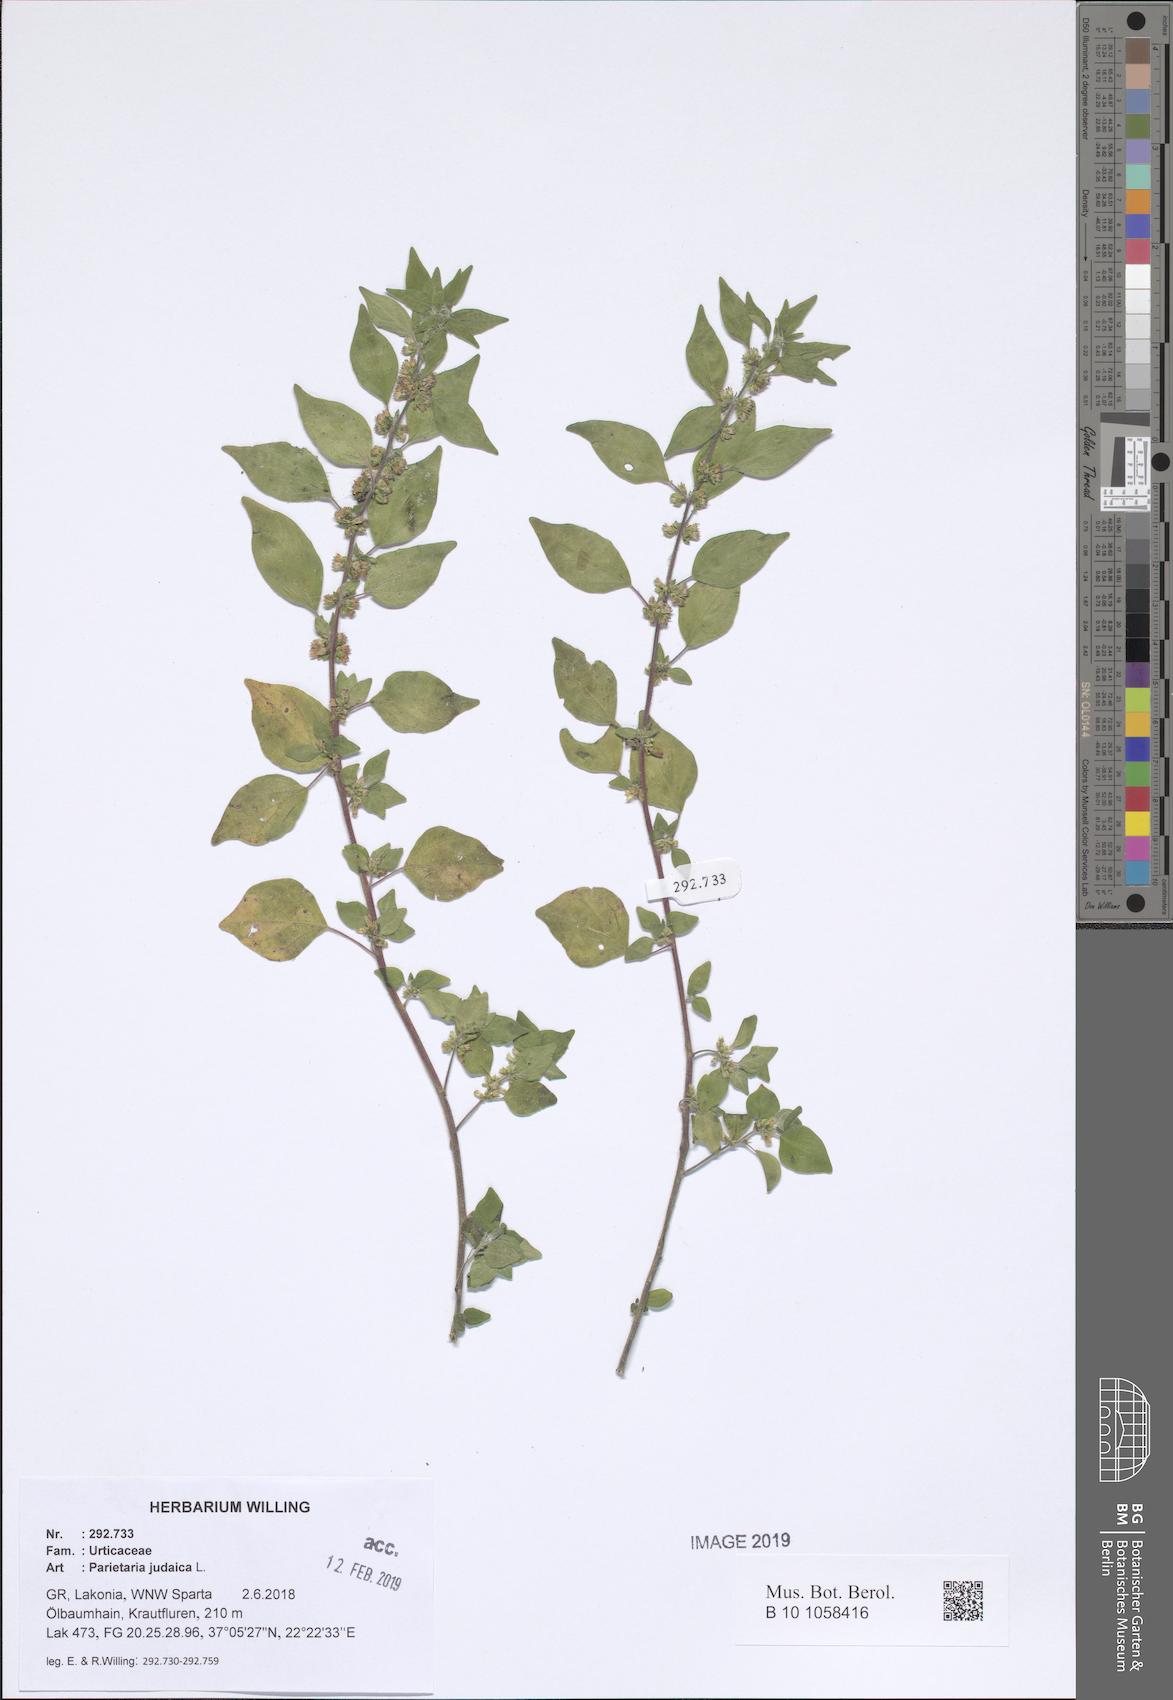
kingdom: Plantae
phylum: Tracheophyta
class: Magnoliopsida
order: Rosales
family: Urticaceae
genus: Parietaria
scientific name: Parietaria judaica
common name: Pellitory-of-the-wall
